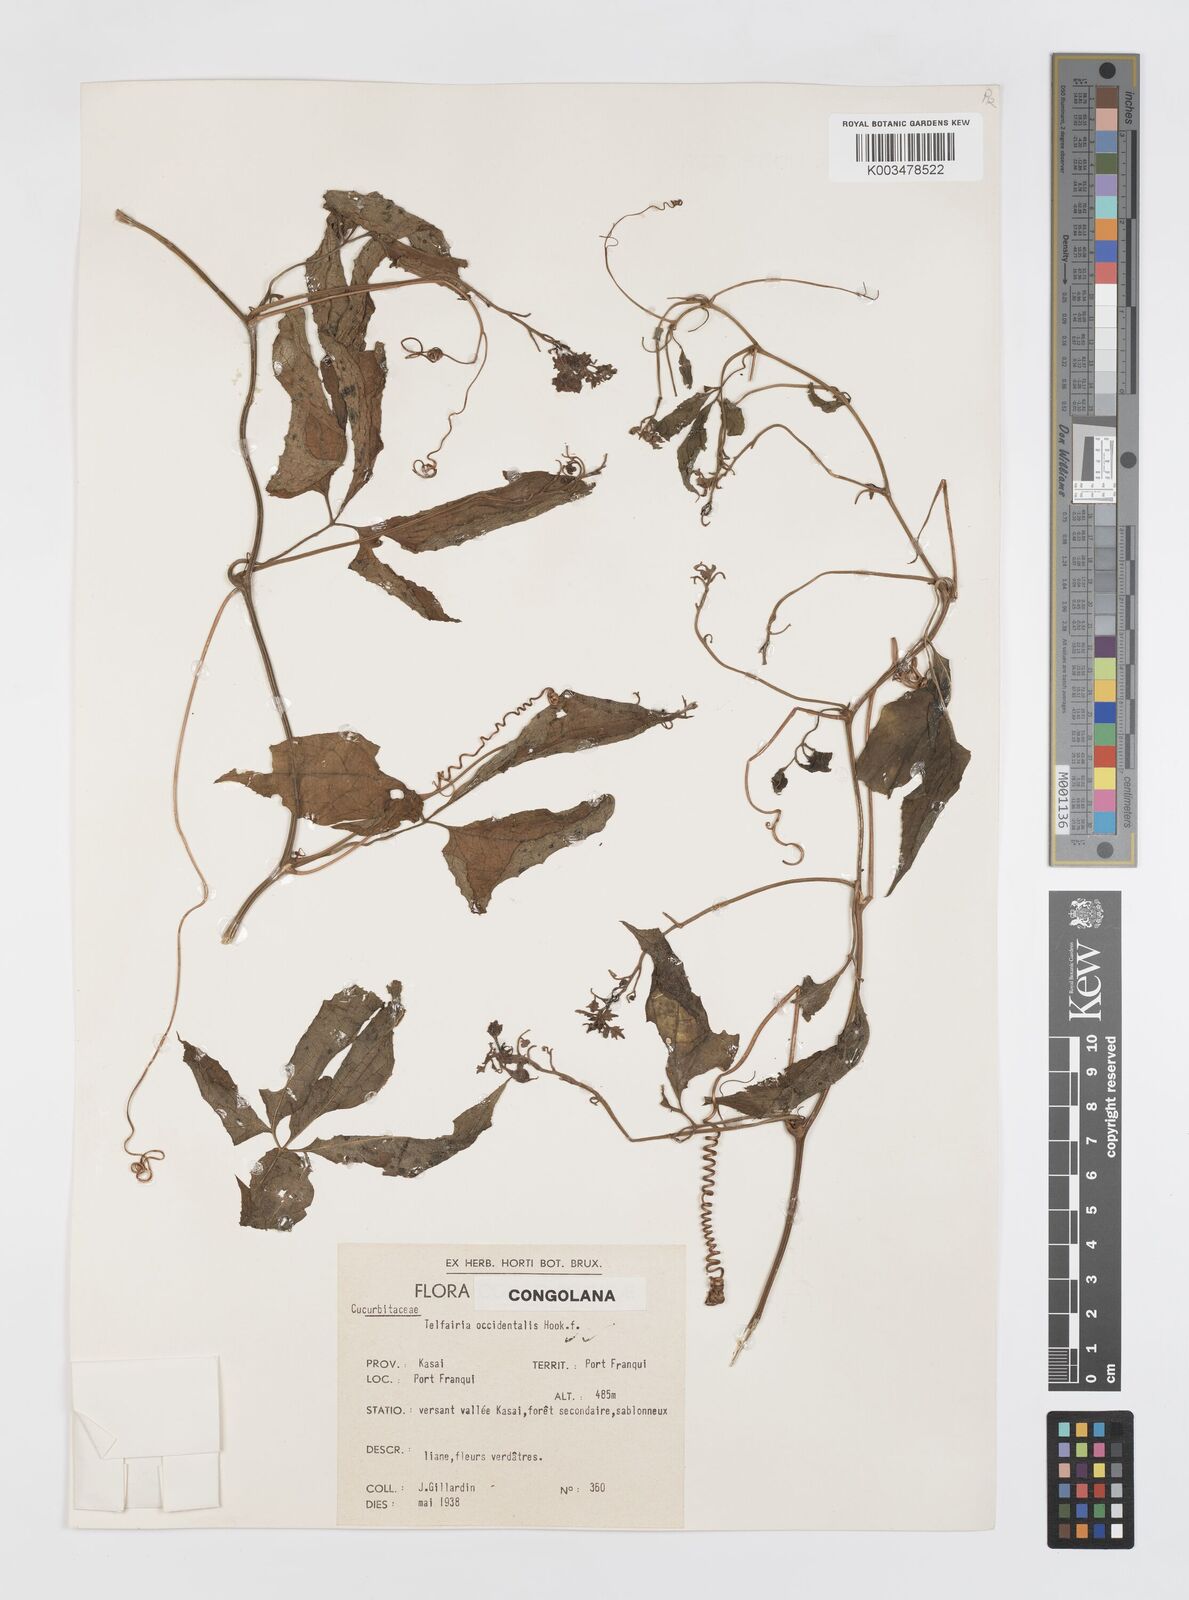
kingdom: Plantae
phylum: Tracheophyta
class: Magnoliopsida
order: Cucurbitales
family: Cucurbitaceae
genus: Telfairia
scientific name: Telfairia occidentalis
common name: Oysternut
